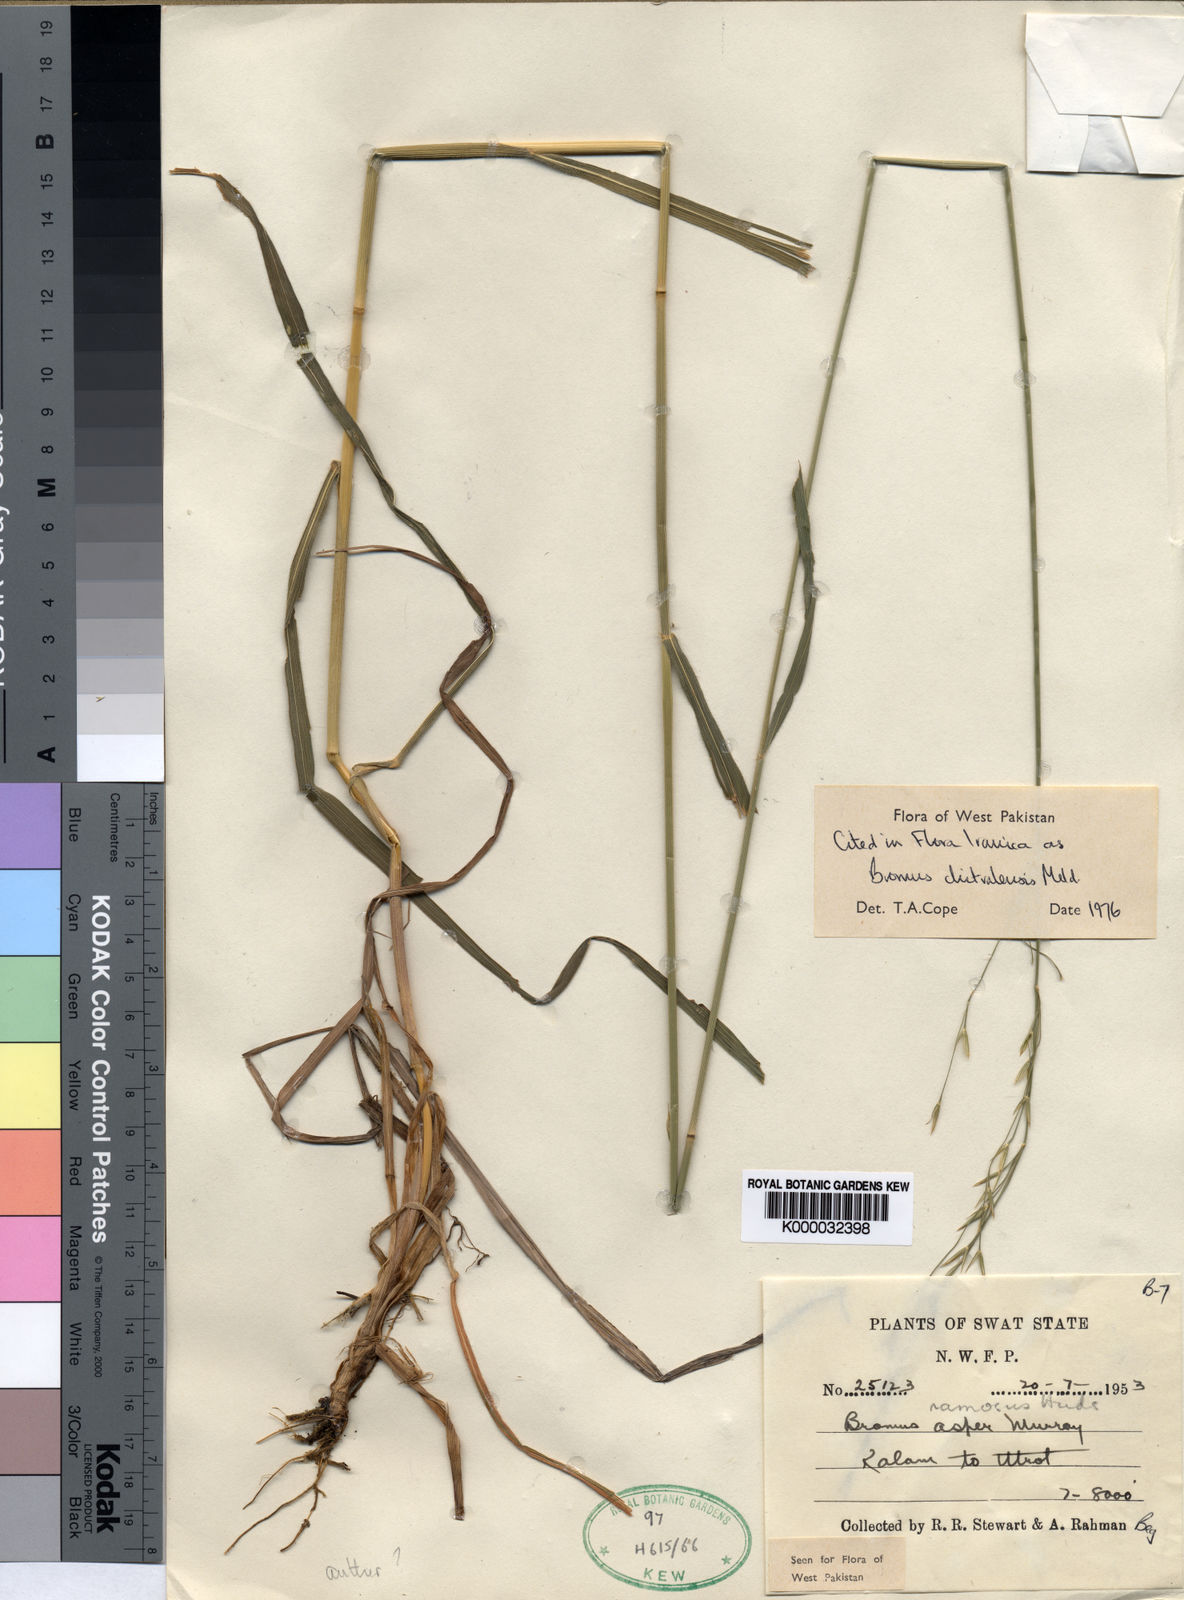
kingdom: Plantae
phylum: Tracheophyta
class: Liliopsida
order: Poales
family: Poaceae
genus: Bromus
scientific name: Bromus ramosus
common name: Hairy brome
